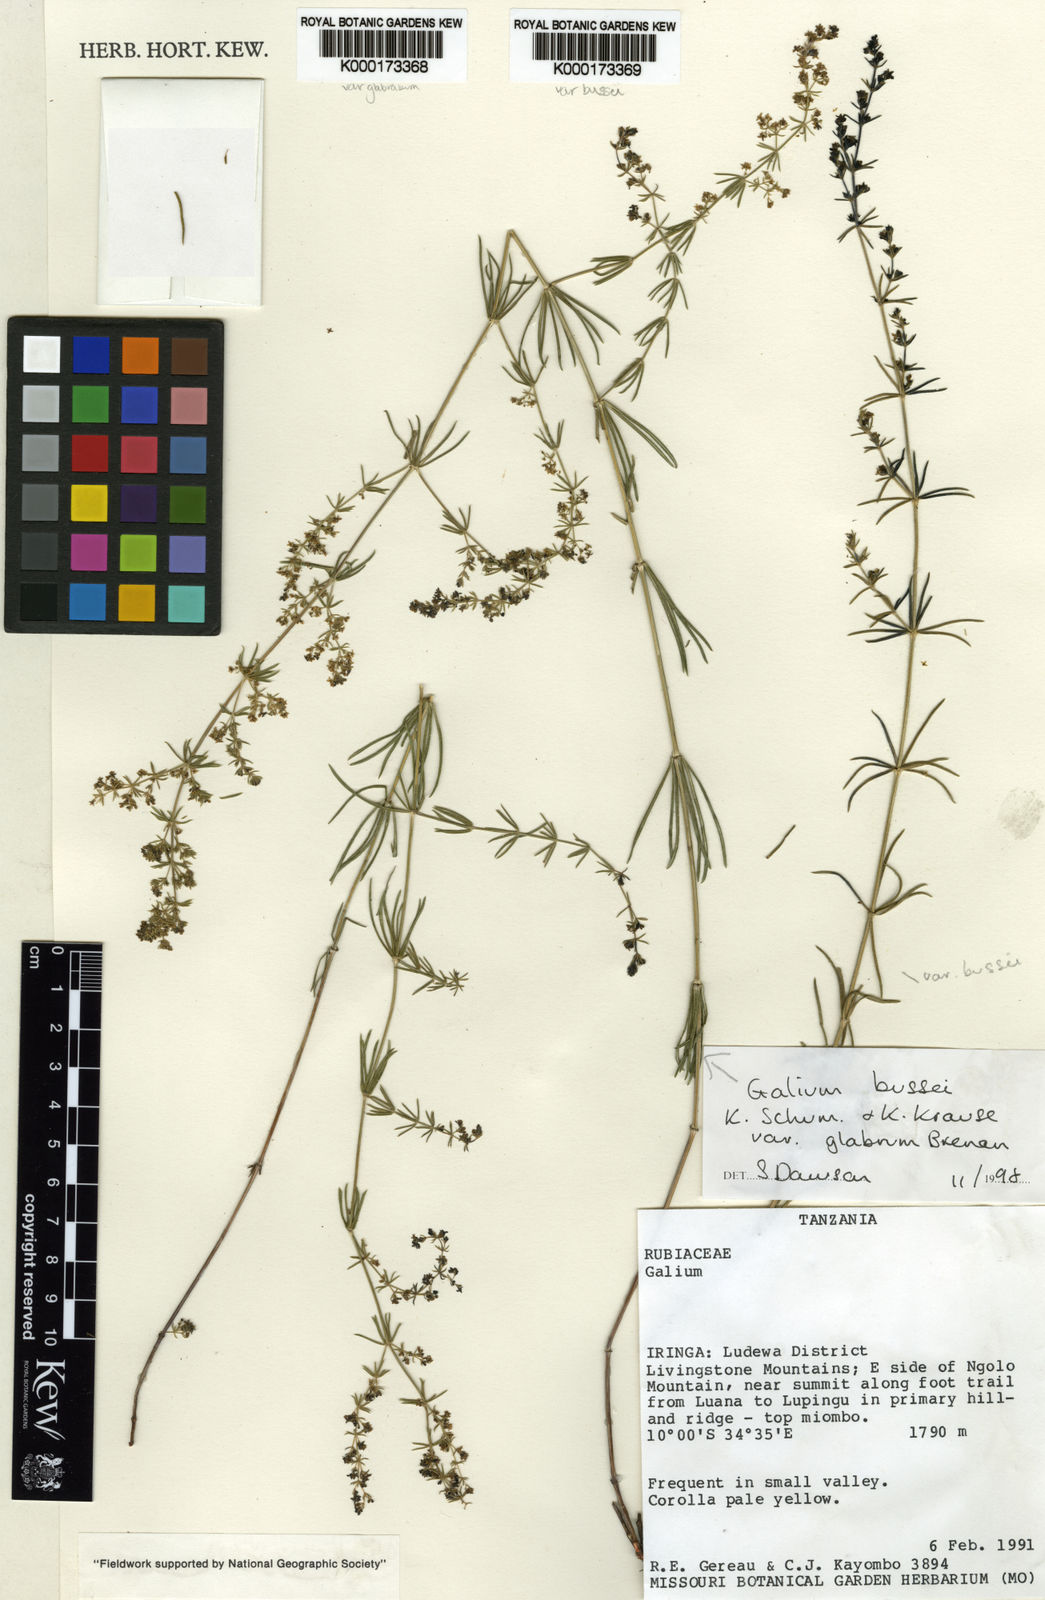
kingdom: Plantae
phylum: Tracheophyta
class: Magnoliopsida
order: Gentianales
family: Rubiaceae
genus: Galium
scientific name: Galium bussei
